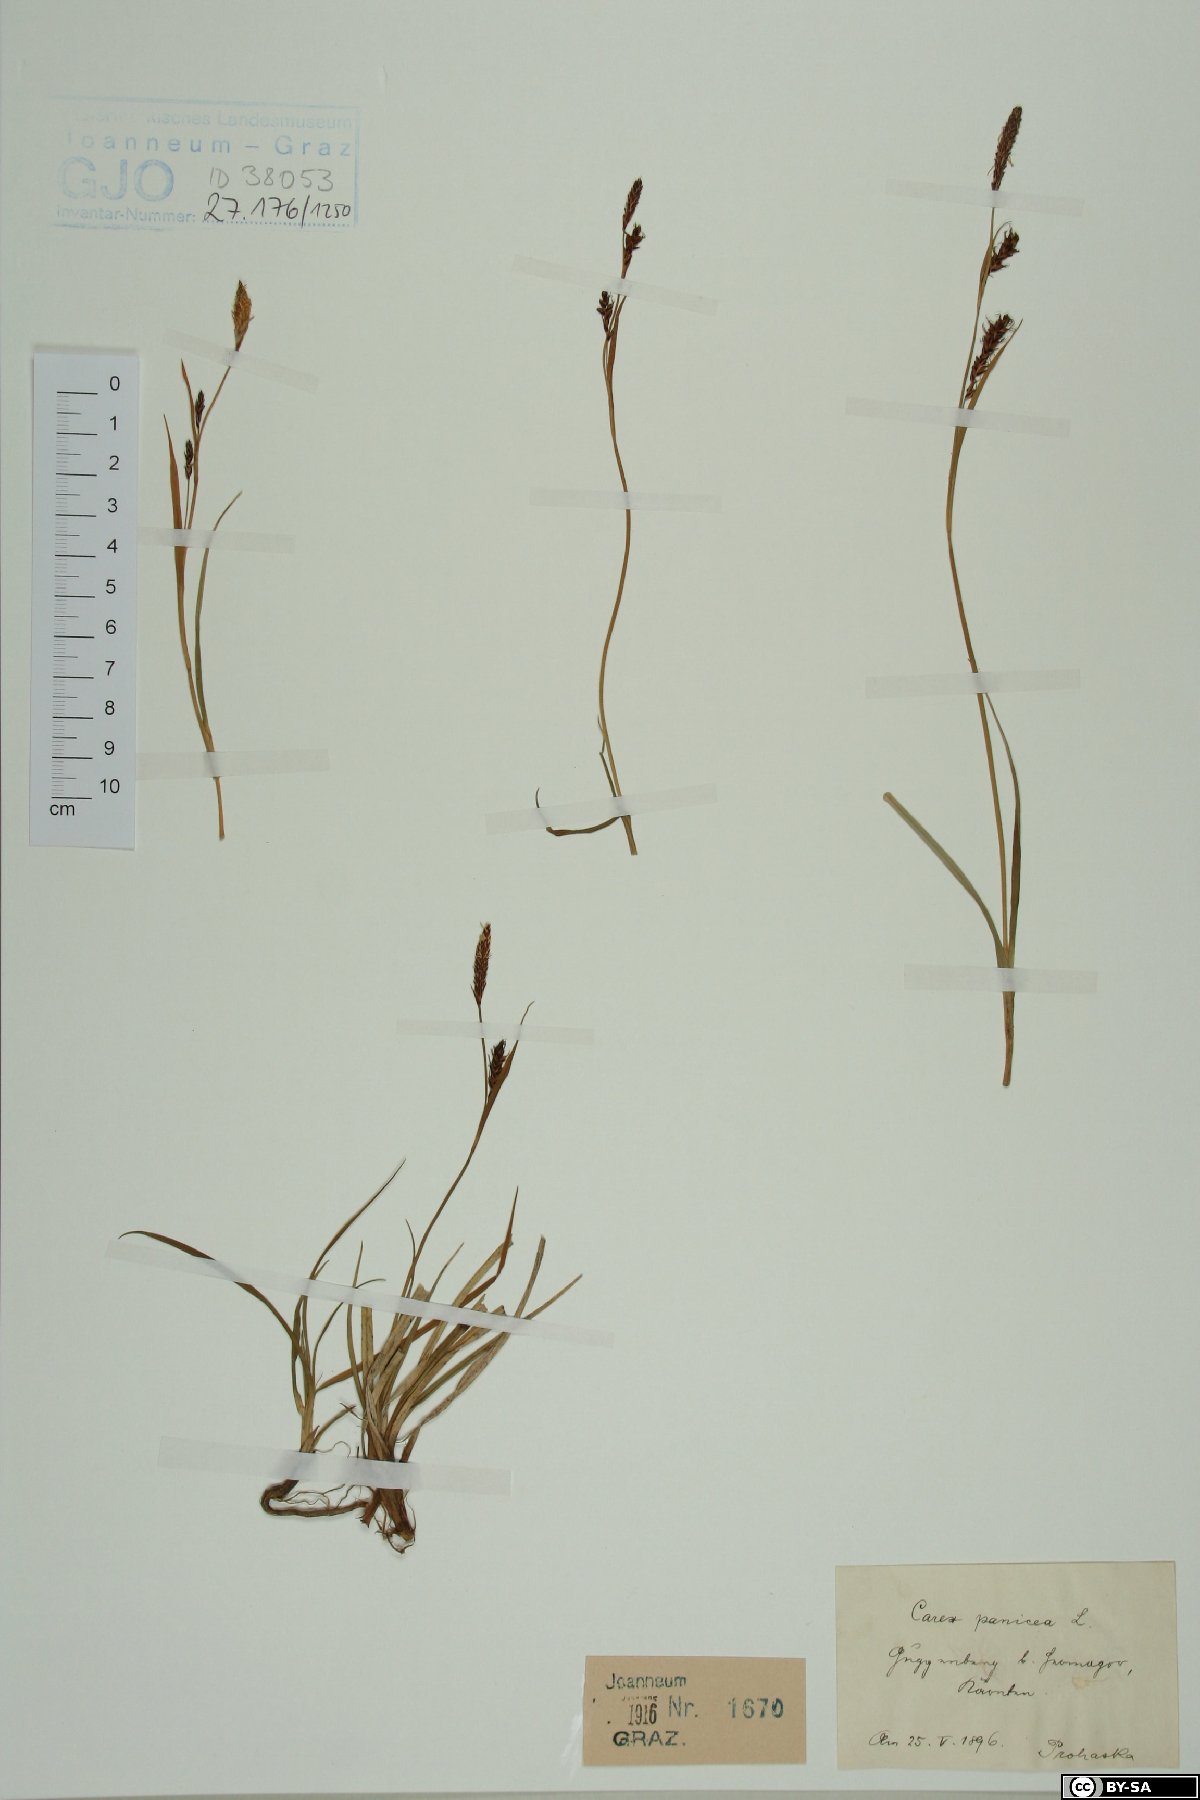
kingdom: Plantae
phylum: Tracheophyta
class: Liliopsida
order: Poales
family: Cyperaceae
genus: Carex
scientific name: Carex panicea
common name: Carnation sedge
